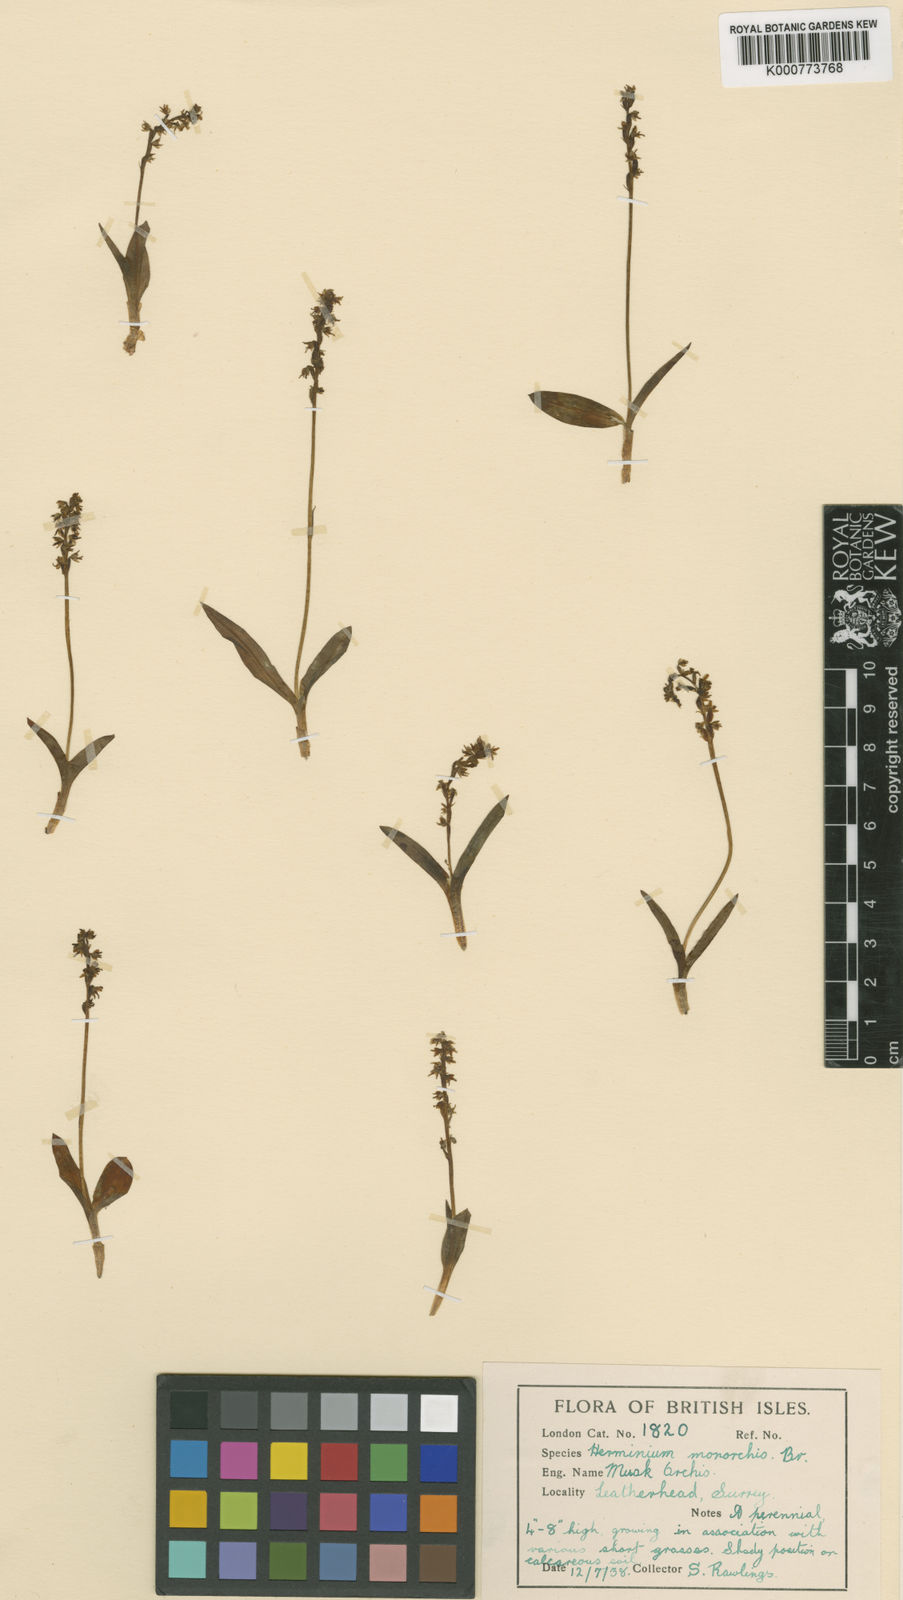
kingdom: Plantae
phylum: Tracheophyta
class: Liliopsida
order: Asparagales
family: Orchidaceae
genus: Herminium
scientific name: Herminium monorchis
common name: Musk orchid
